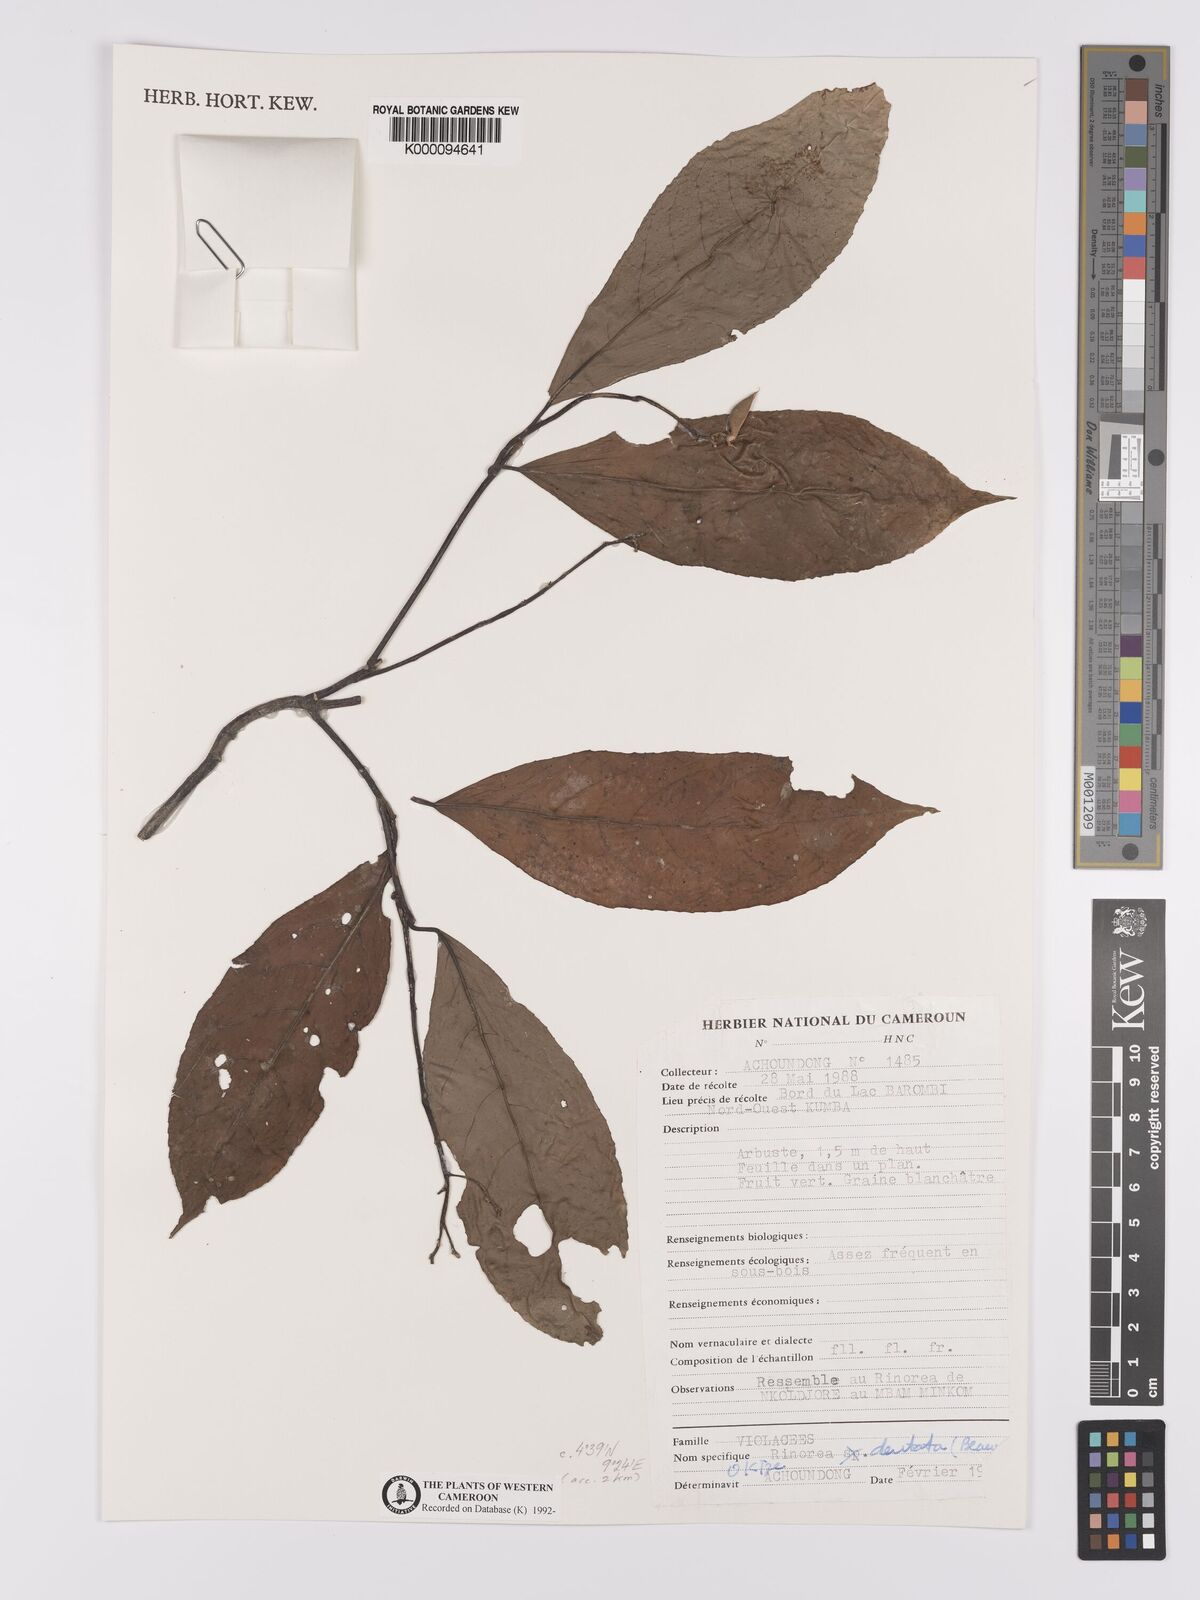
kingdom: Plantae
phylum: Tracheophyta
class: Magnoliopsida
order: Malpighiales
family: Violaceae
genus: Rinorea
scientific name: Rinorea dentata
